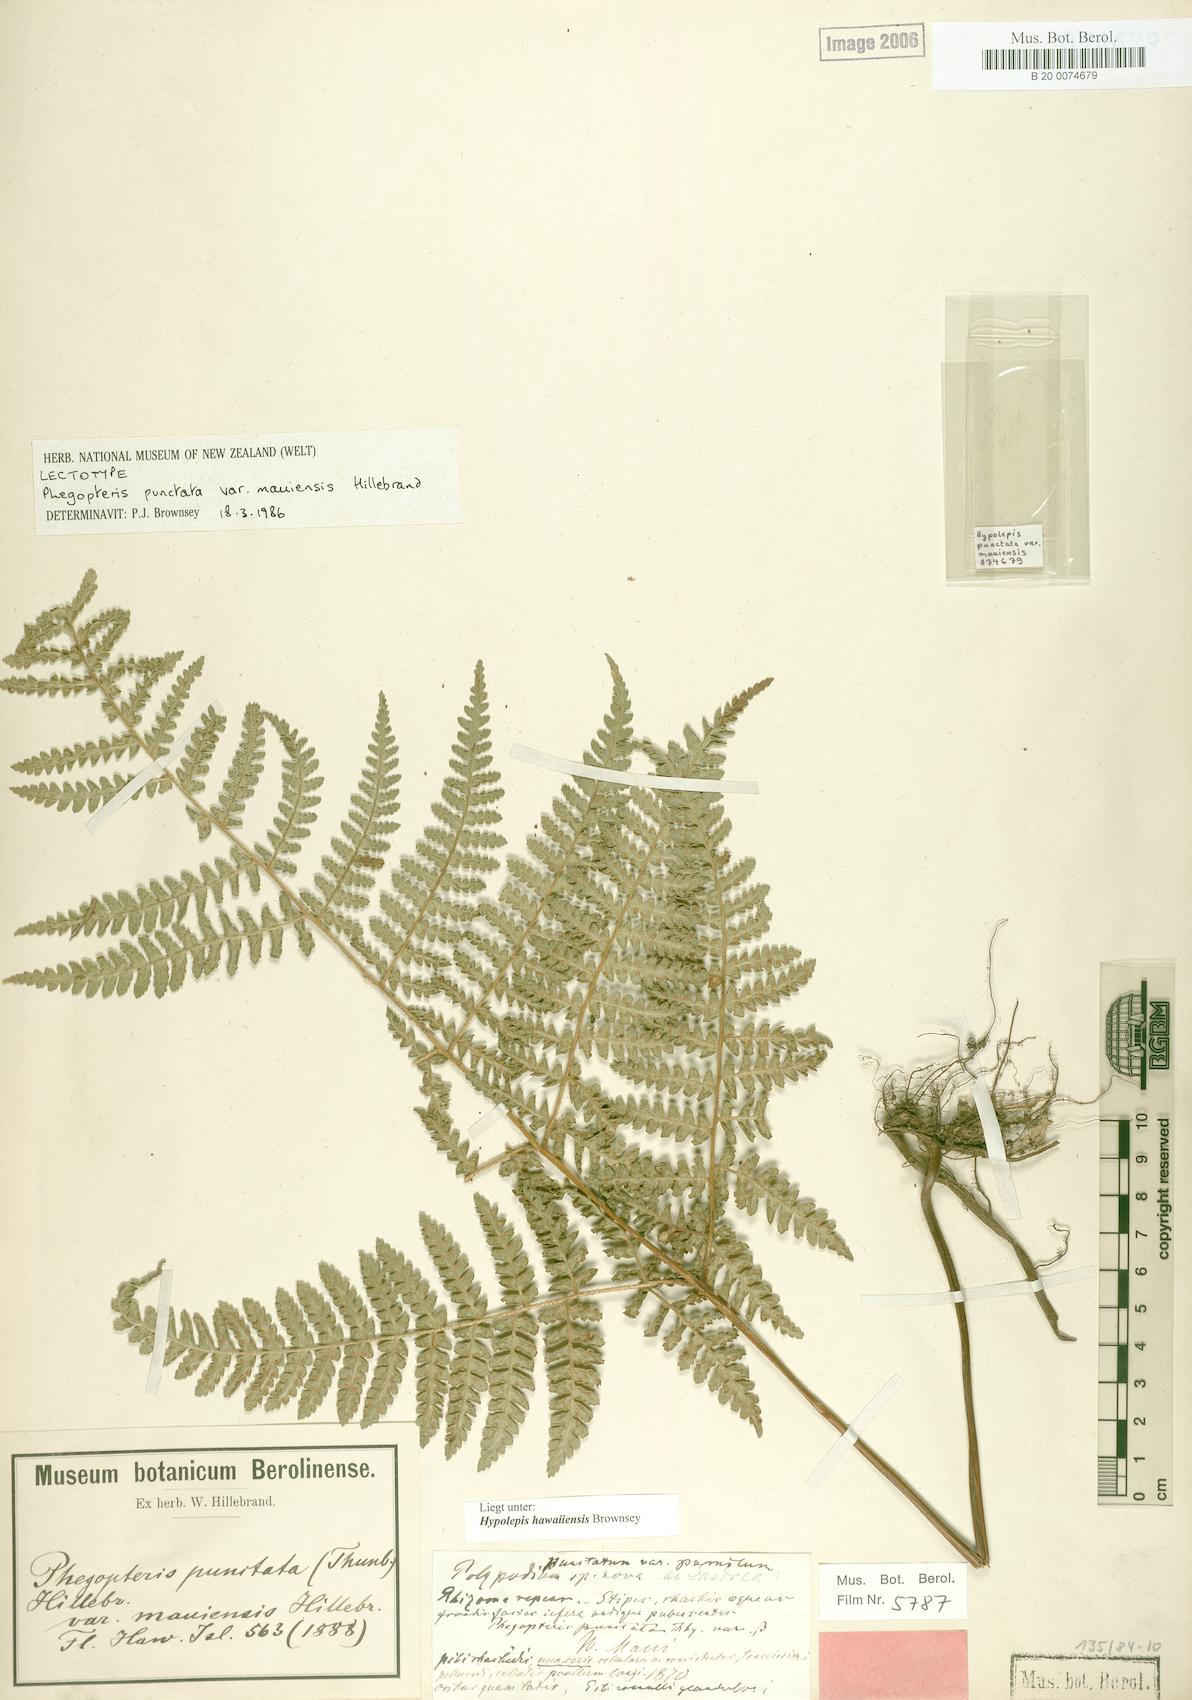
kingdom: Plantae
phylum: Tracheophyta
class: Polypodiopsida
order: Polypodiales
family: Dennstaedtiaceae
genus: Hypolepis
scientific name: Hypolepis hawaiiensis
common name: Dotted beadfern
